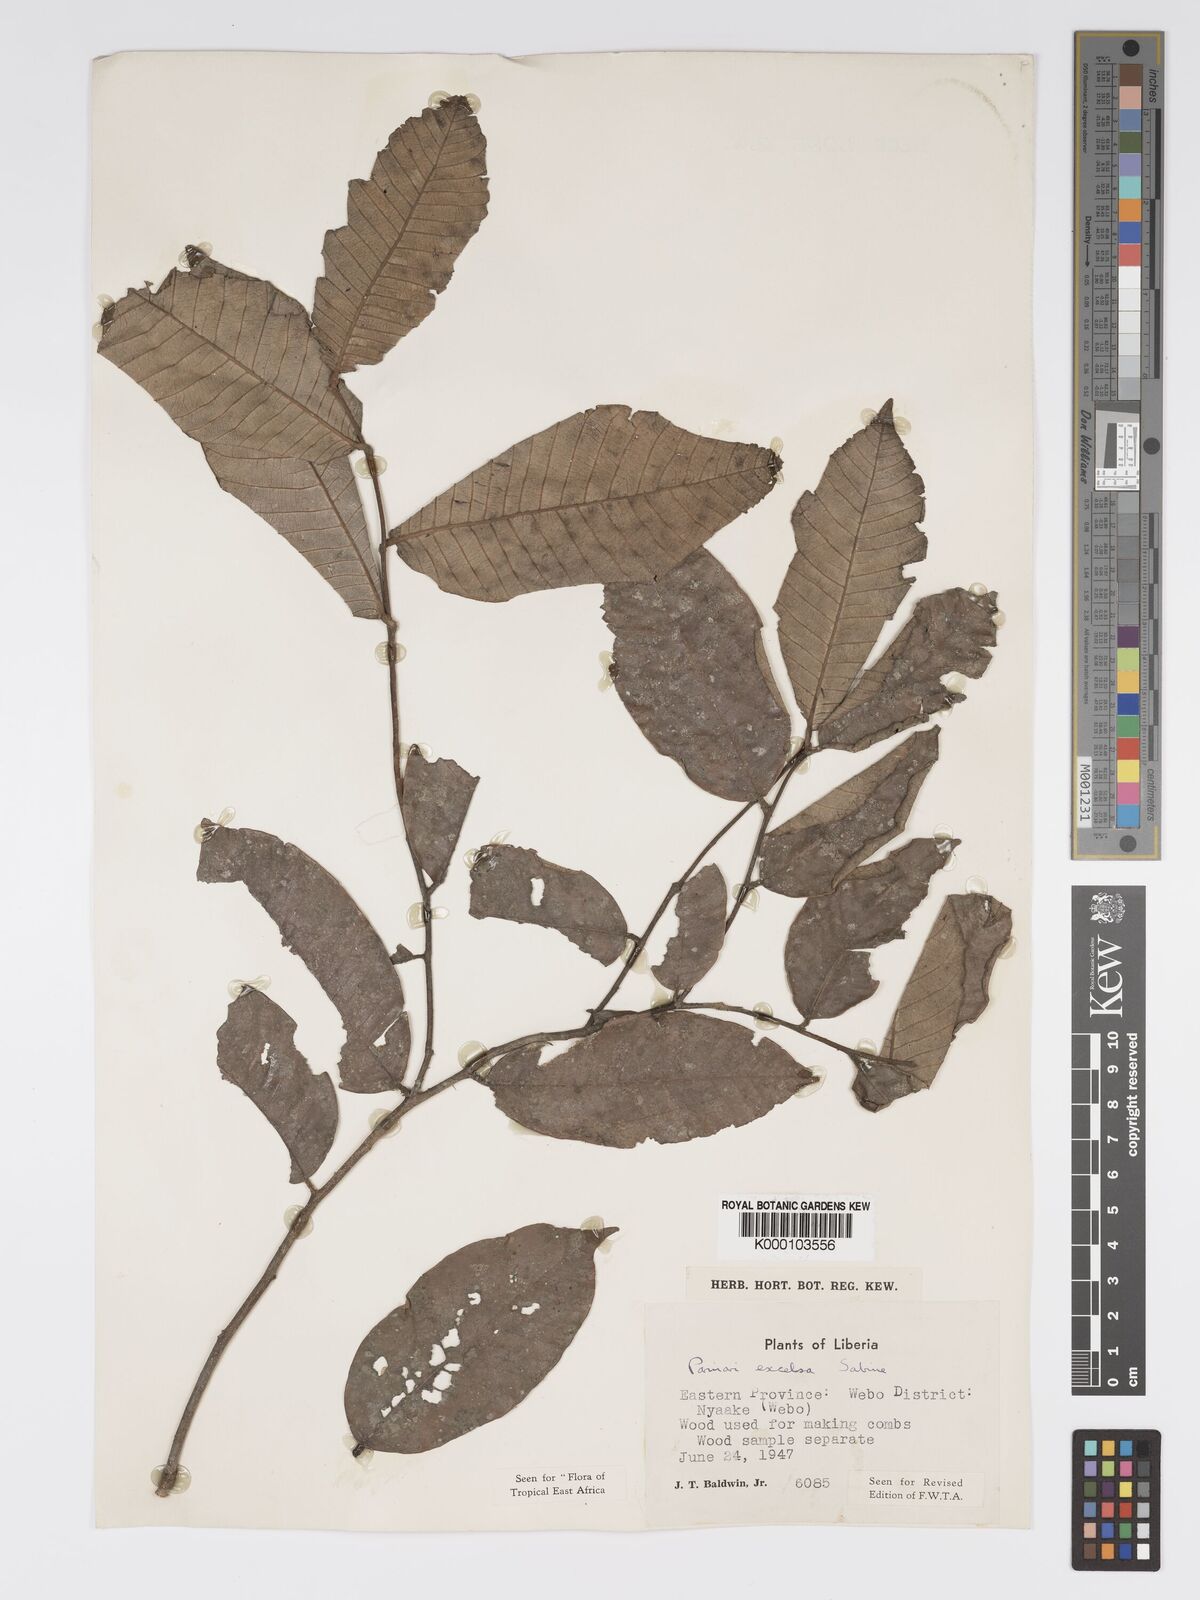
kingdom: Plantae
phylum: Tracheophyta
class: Magnoliopsida
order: Malpighiales
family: Chrysobalanaceae
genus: Parinari
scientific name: Parinari excelsa
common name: Guinea-plum
